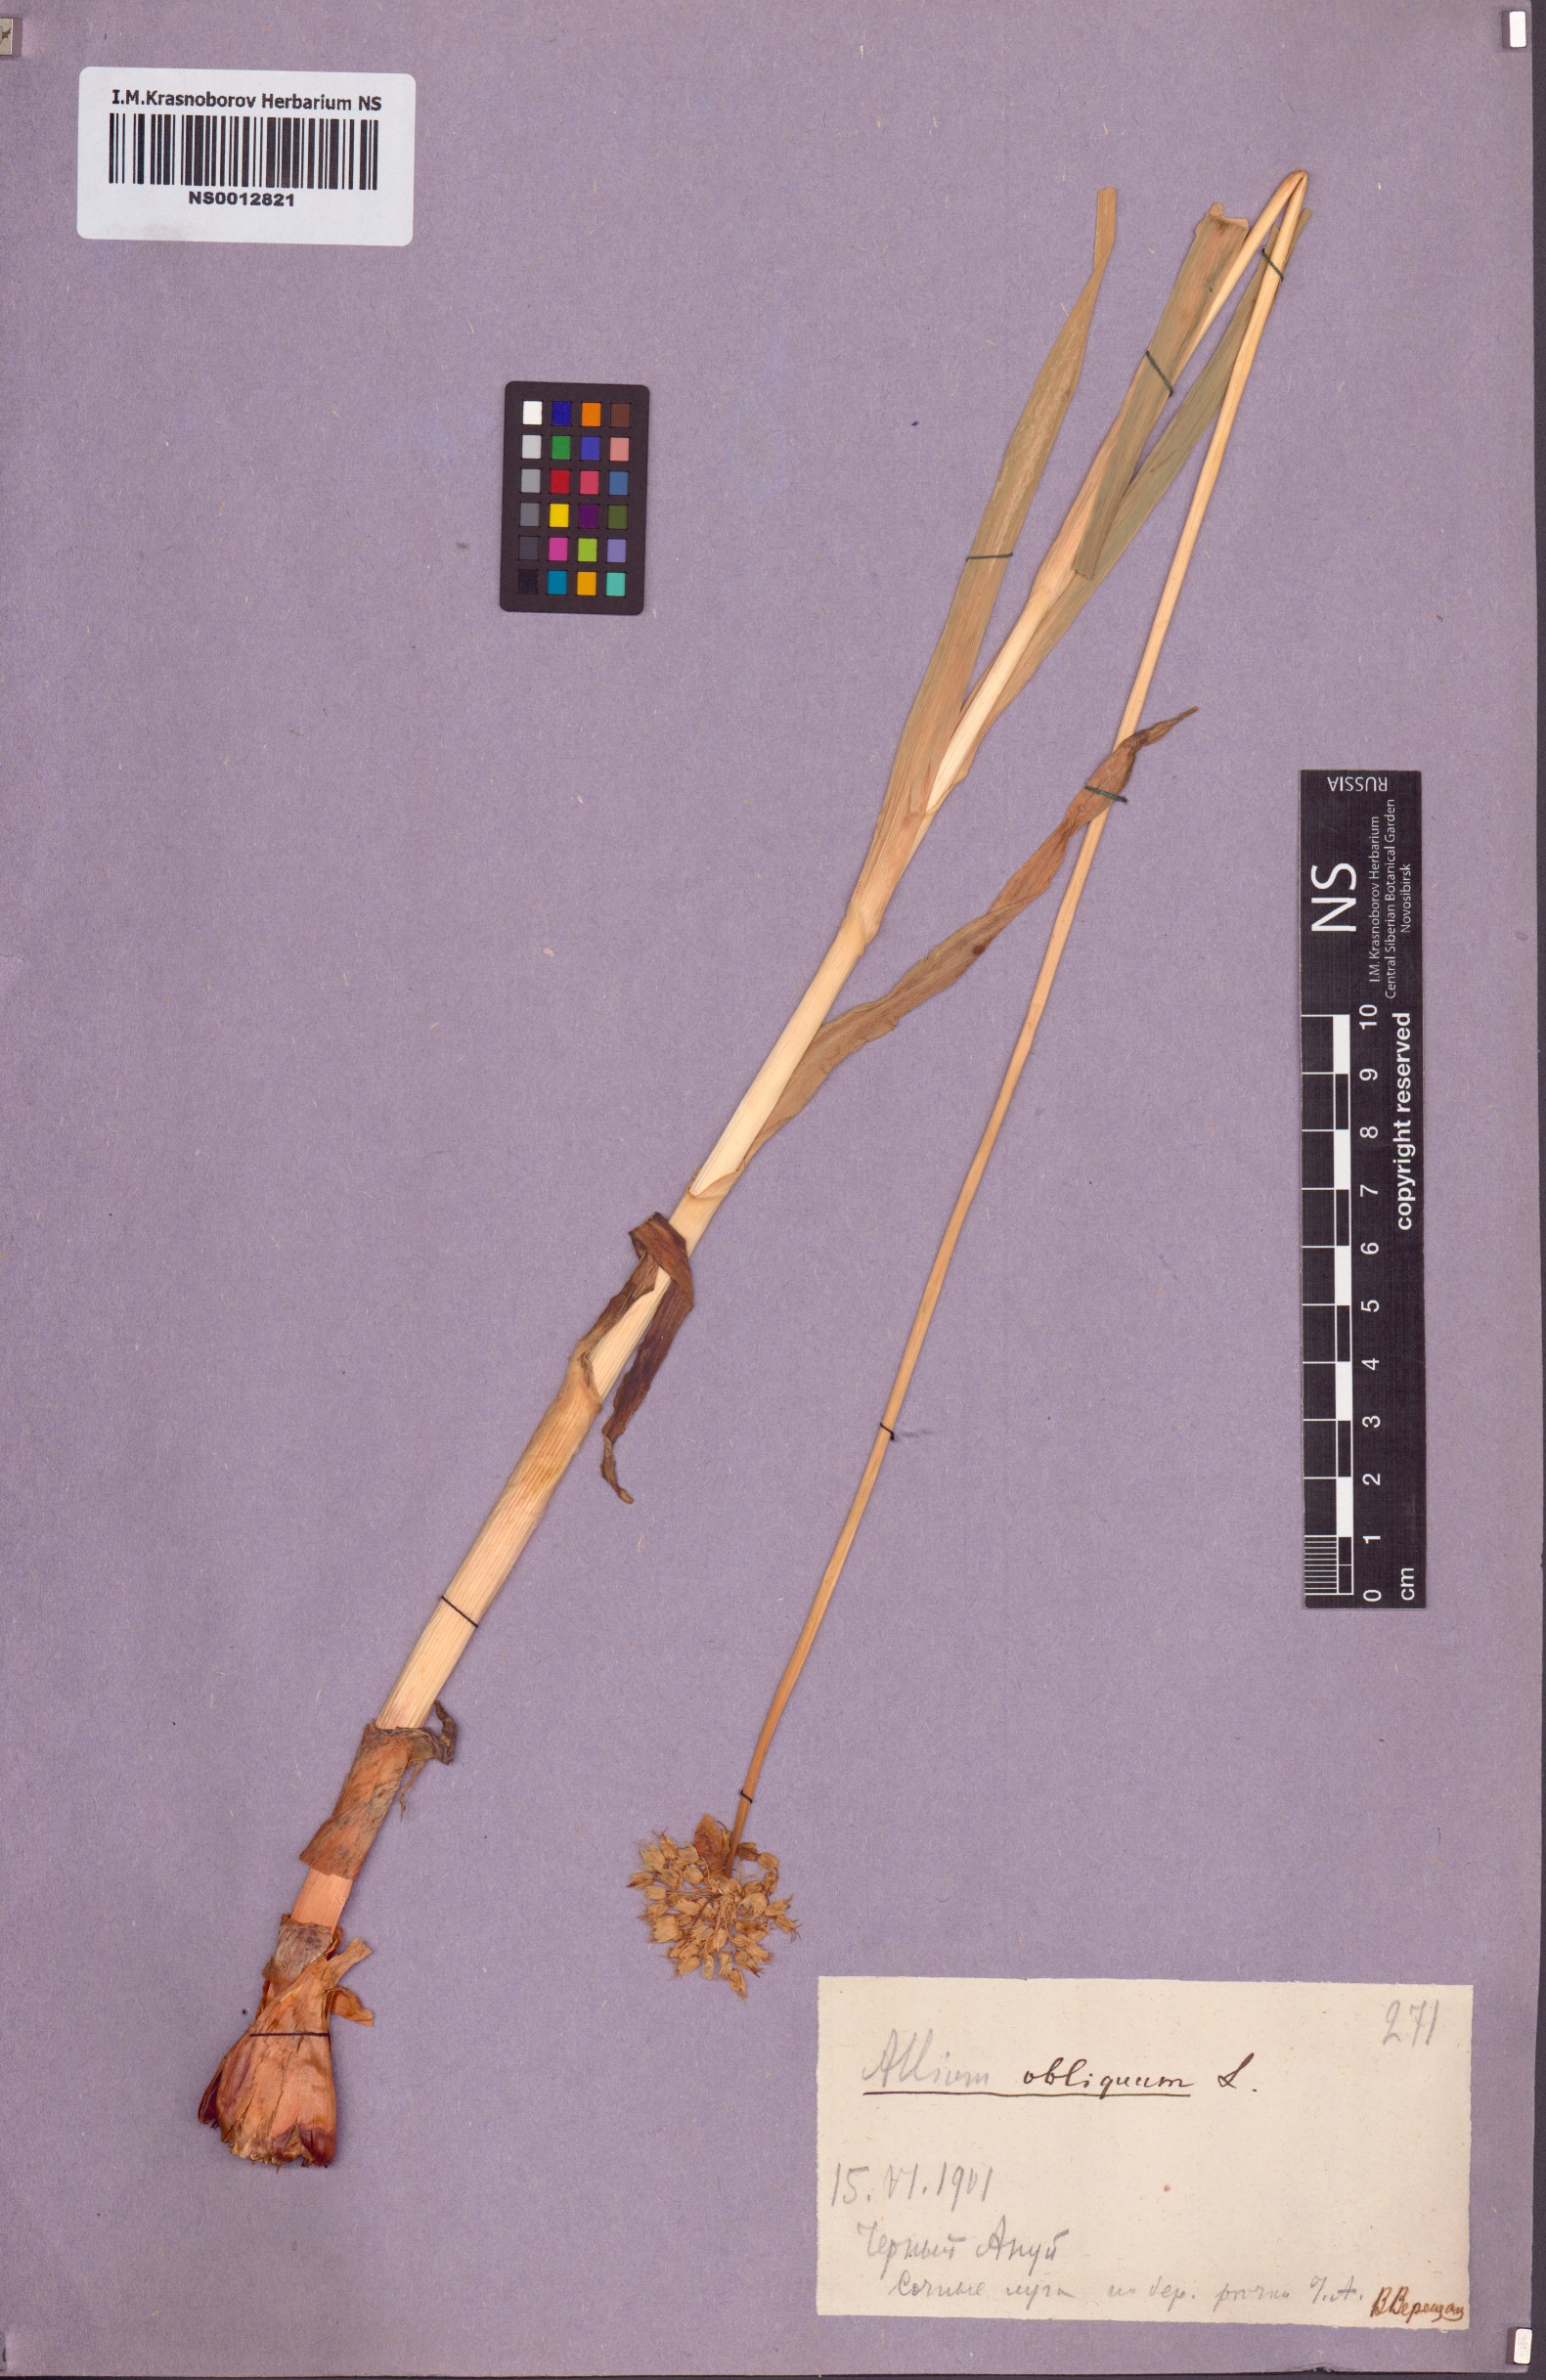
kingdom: Plantae
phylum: Tracheophyta
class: Liliopsida
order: Asparagales
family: Amaryllidaceae
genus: Allium
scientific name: Allium obliquum
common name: Oblique onion
